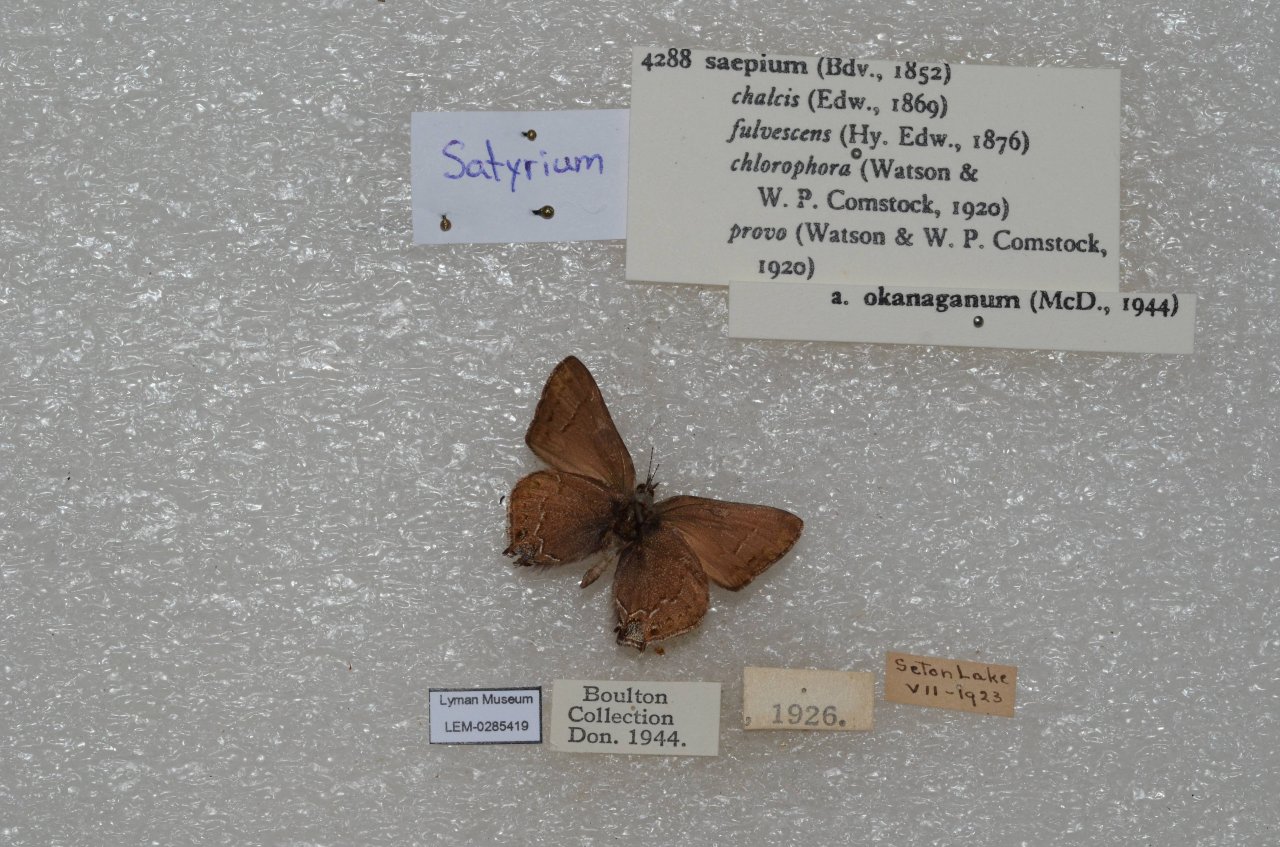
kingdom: Animalia
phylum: Arthropoda
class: Insecta
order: Lepidoptera
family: Lycaenidae
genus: Strymon
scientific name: Strymon saepium
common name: Hedgerow Hairstreak
